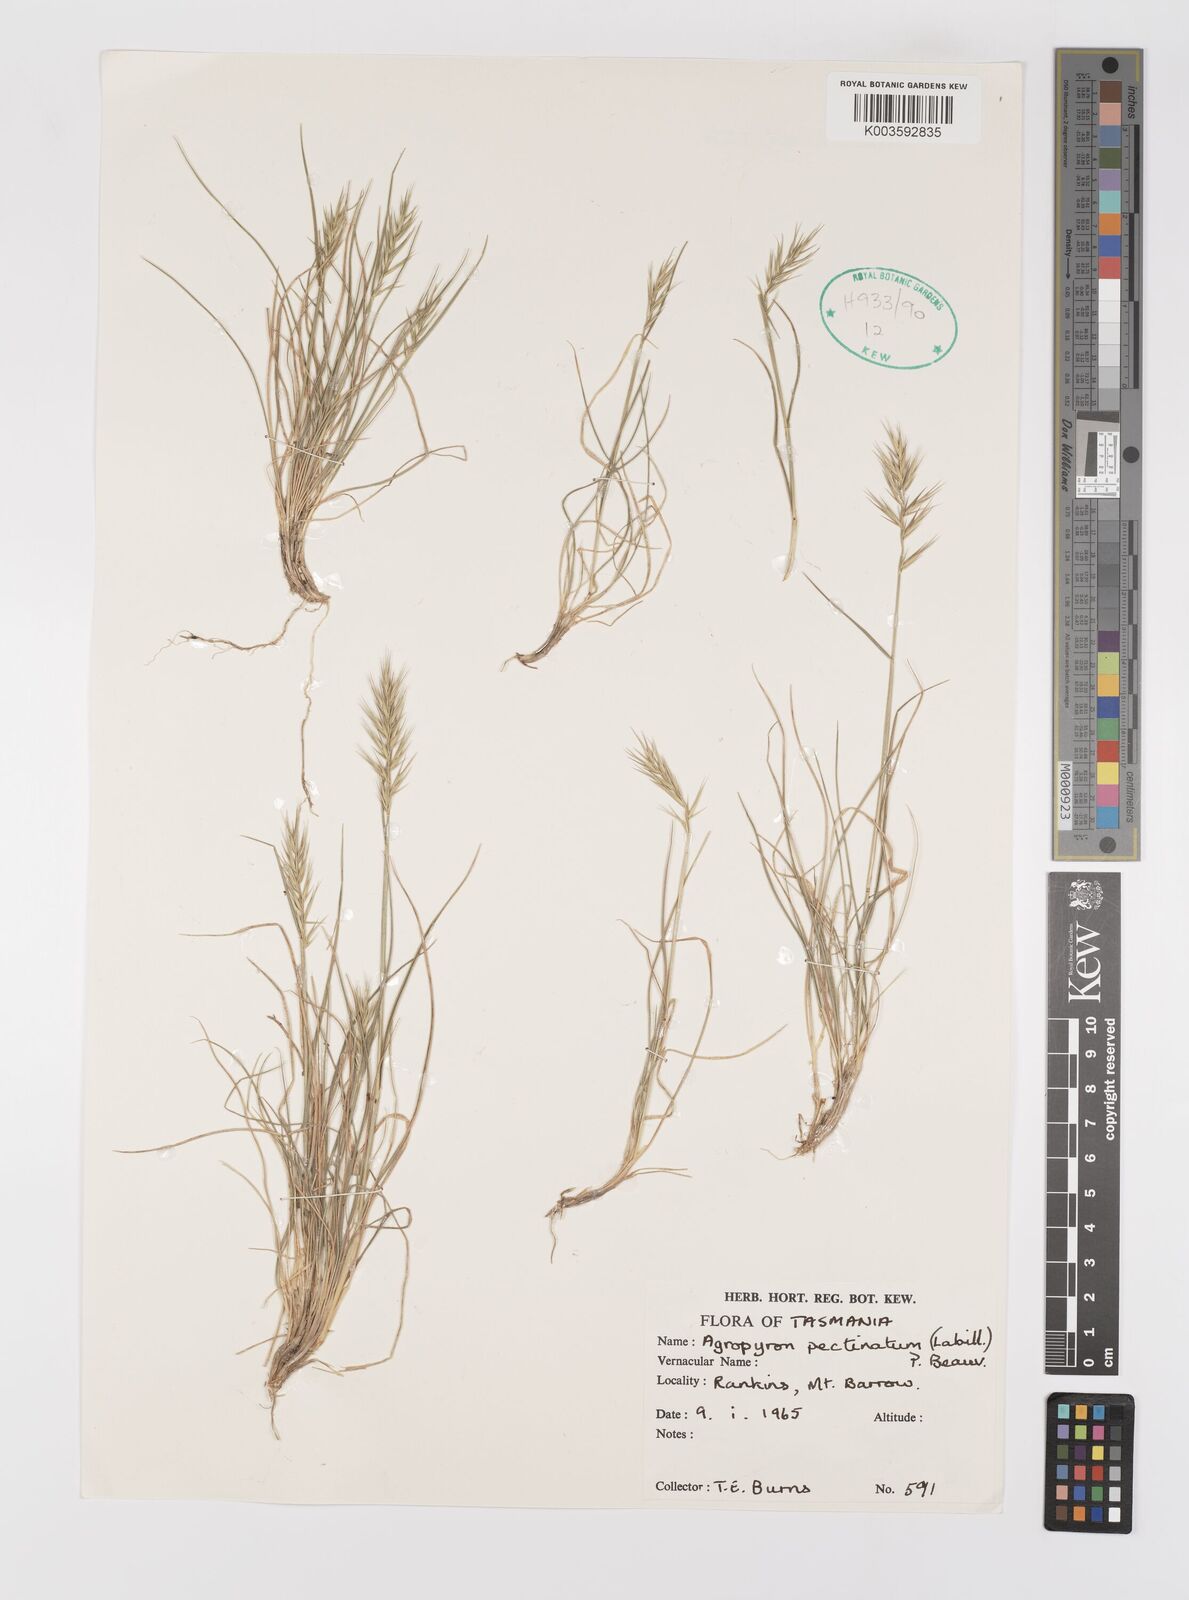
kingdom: Plantae
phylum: Tracheophyta
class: Liliopsida
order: Poales
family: Poaceae
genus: Australopyrum
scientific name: Australopyrum pectinatum
